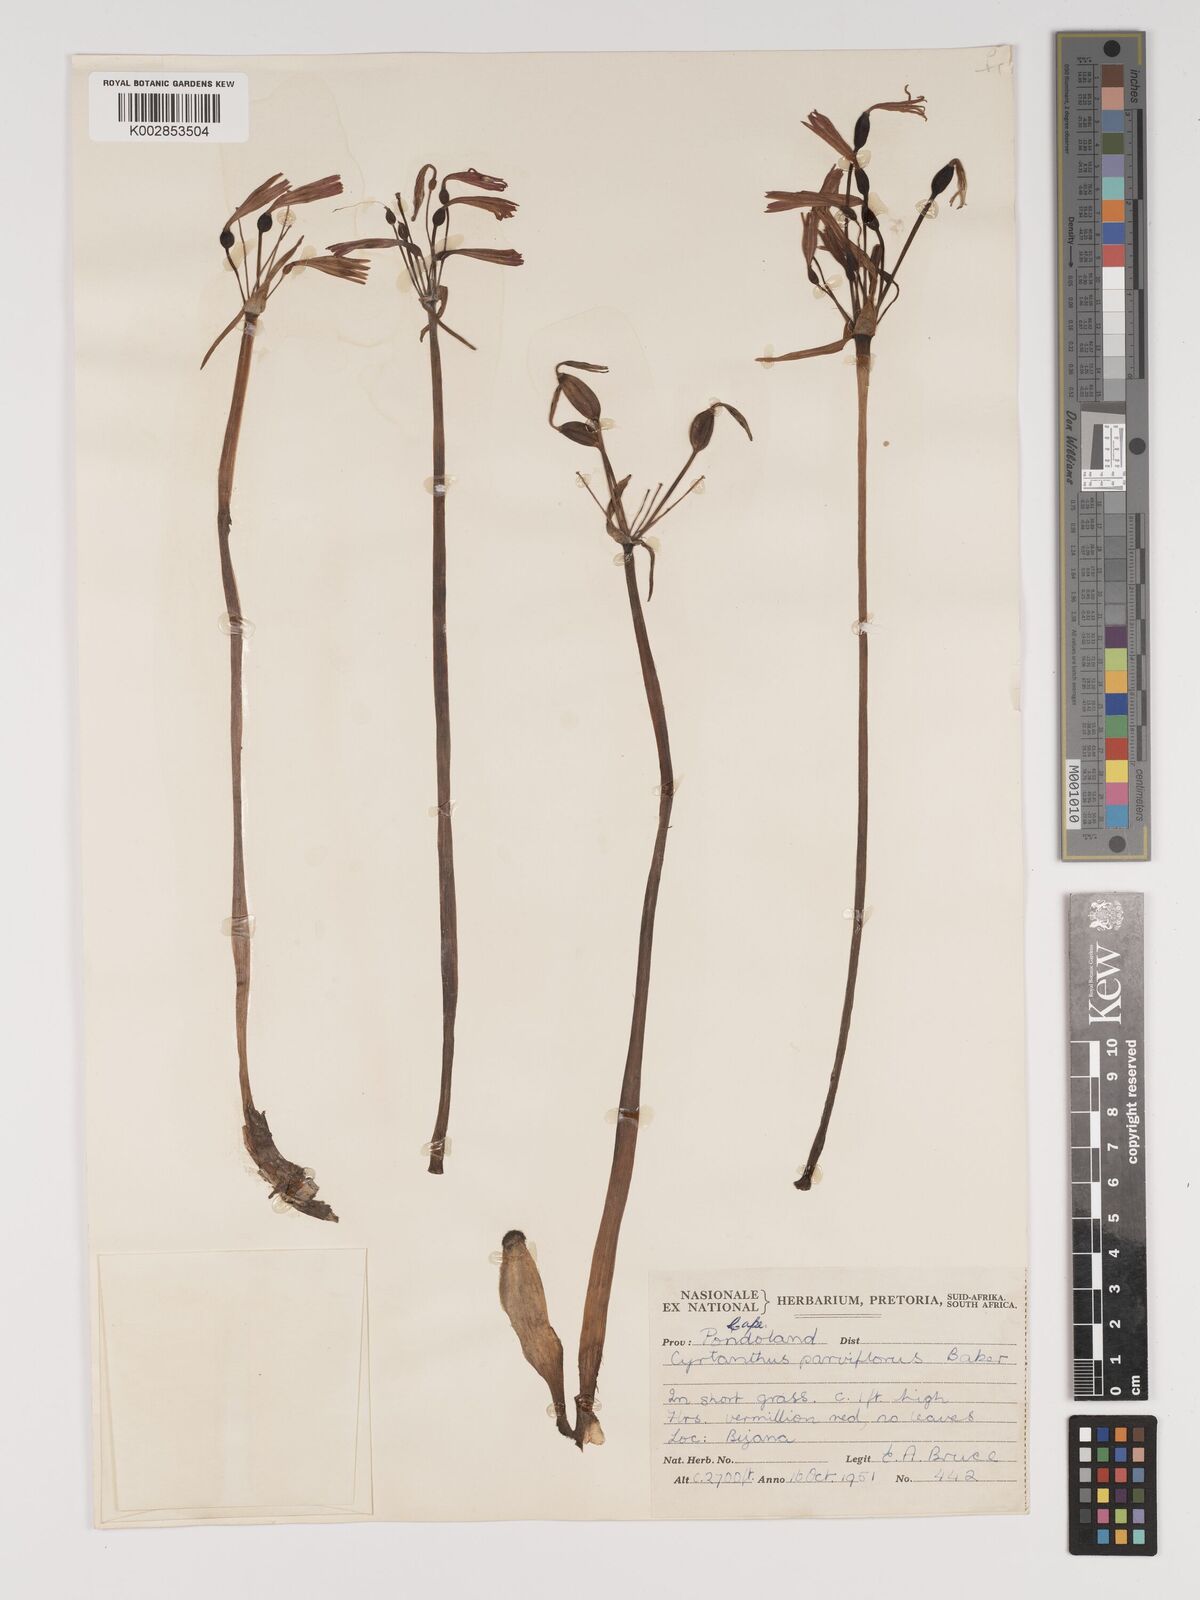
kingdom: Plantae
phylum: Tracheophyta
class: Liliopsida
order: Asparagales
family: Amaryllidaceae
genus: Cyrtanthus
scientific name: Cyrtanthus brachyscyphus
